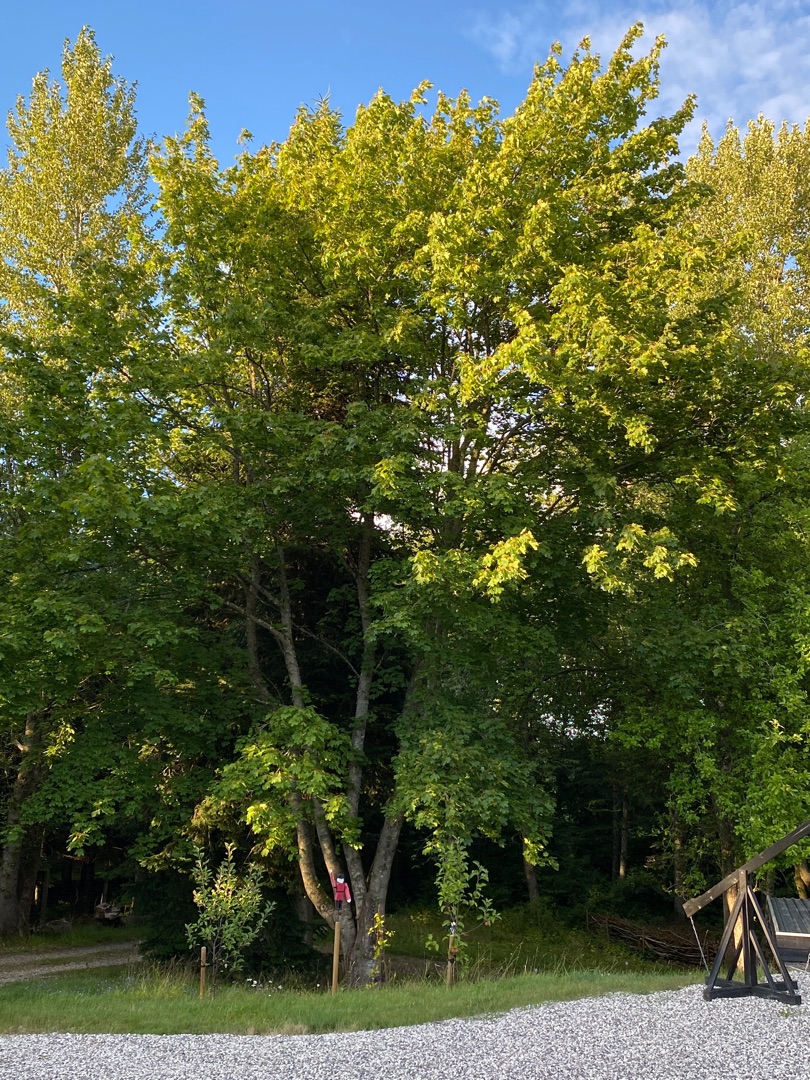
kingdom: Plantae
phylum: Tracheophyta
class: Magnoliopsida
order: Sapindales
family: Sapindaceae
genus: Acer
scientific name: Acer pseudoplatanus
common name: Ahorn
